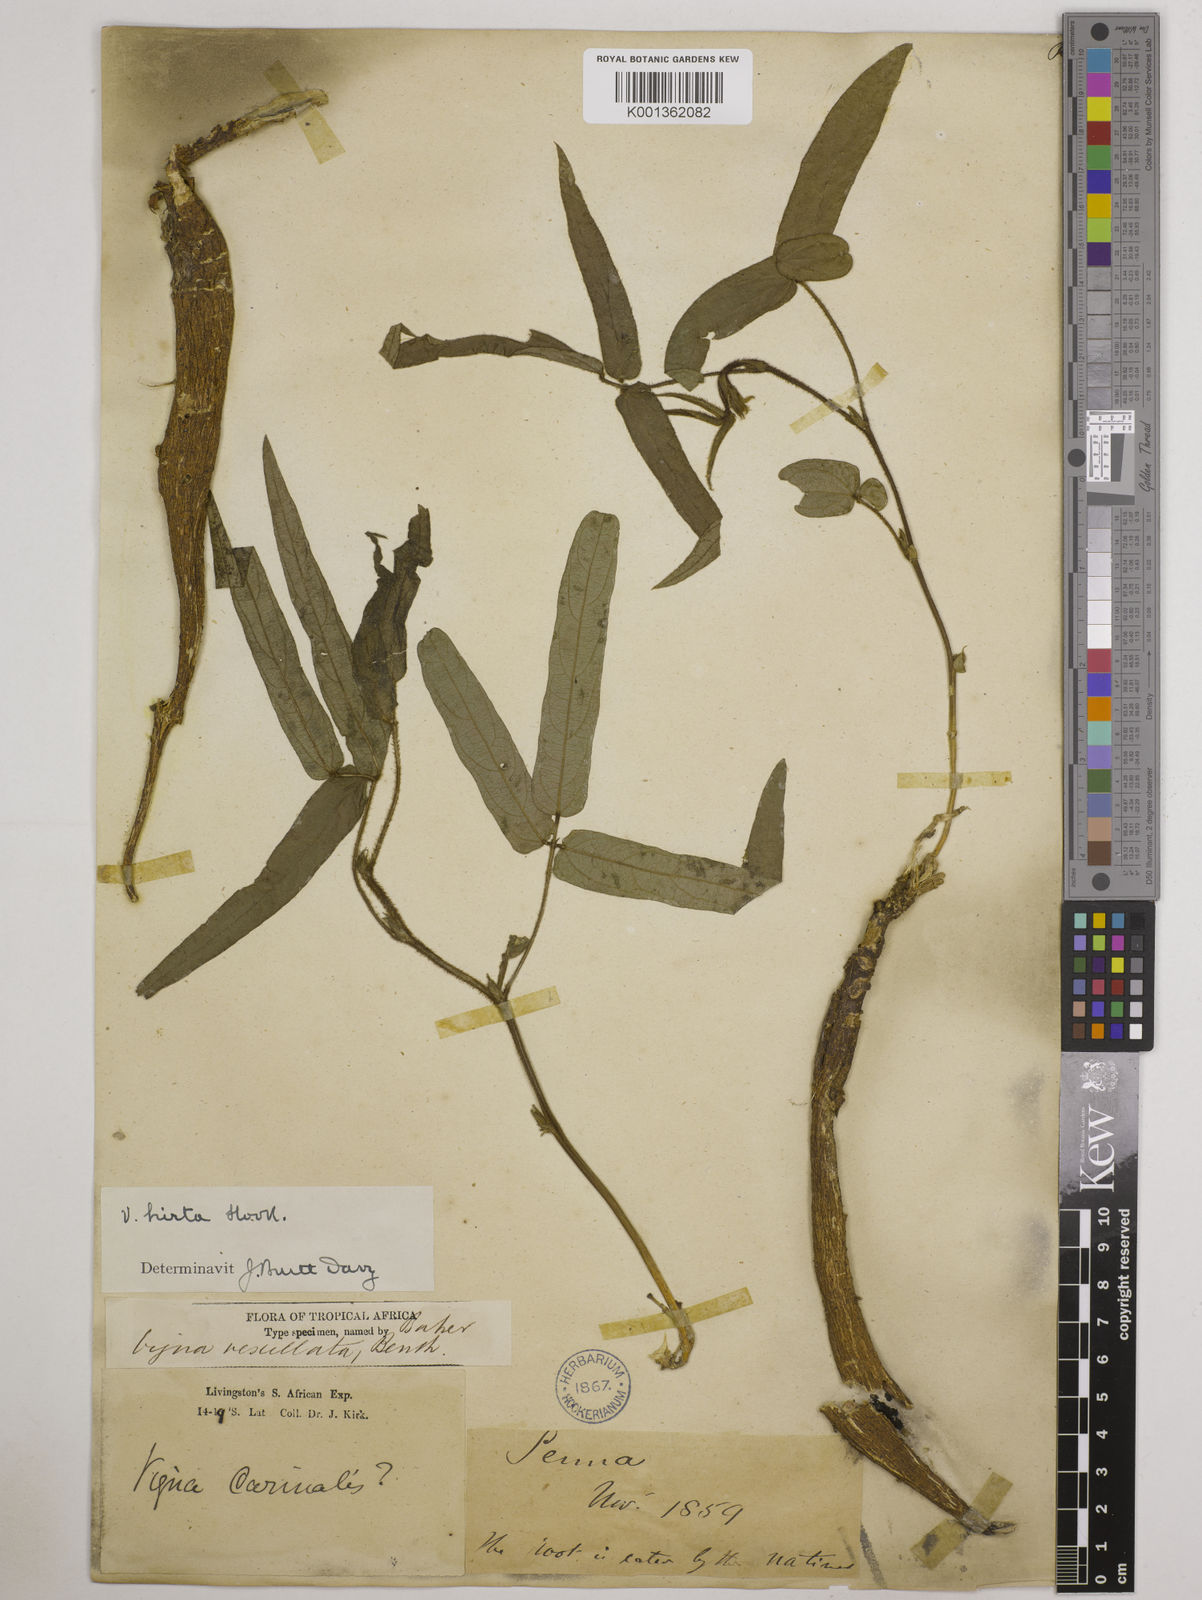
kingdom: Plantae
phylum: Tracheophyta
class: Magnoliopsida
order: Fabales
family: Fabaceae
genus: Vigna
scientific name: Vigna vexillata
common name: Zombi pea
